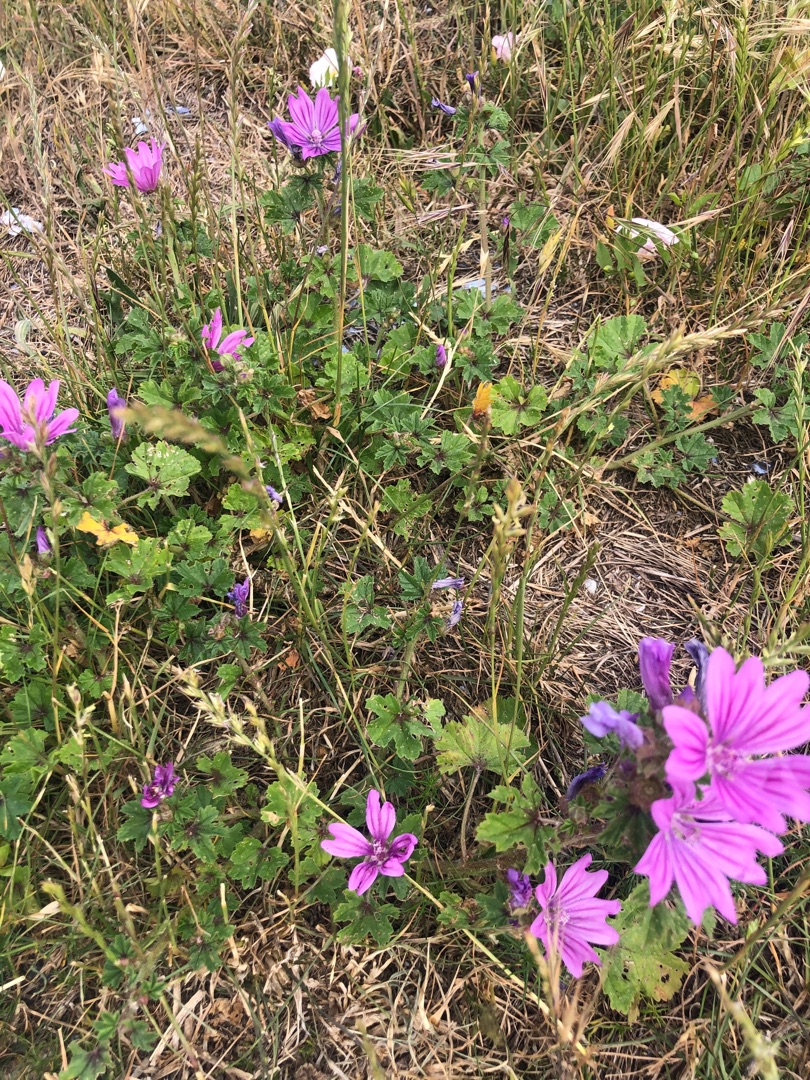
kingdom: Plantae
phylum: Tracheophyta
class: Magnoliopsida
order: Malvales
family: Malvaceae
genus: Malva
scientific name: Malva sylvestris
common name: Almindelig katost
